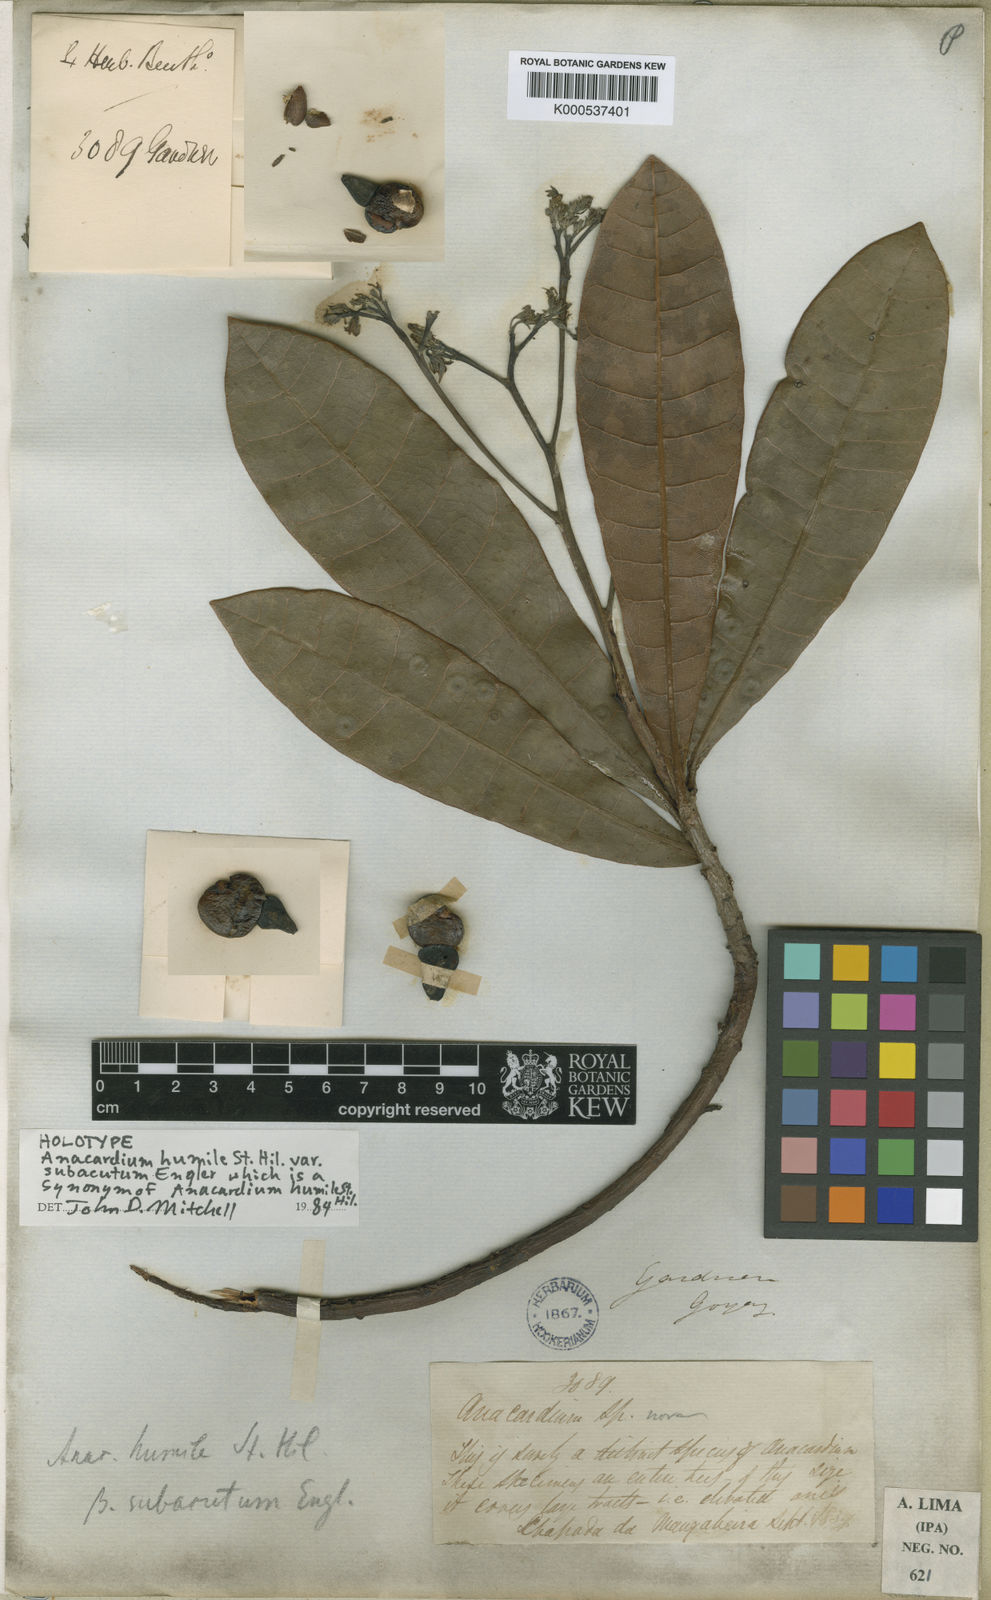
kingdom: Plantae
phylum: Tracheophyta
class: Magnoliopsida
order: Sapindales
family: Anacardiaceae
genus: Anacardium
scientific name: Anacardium humile
